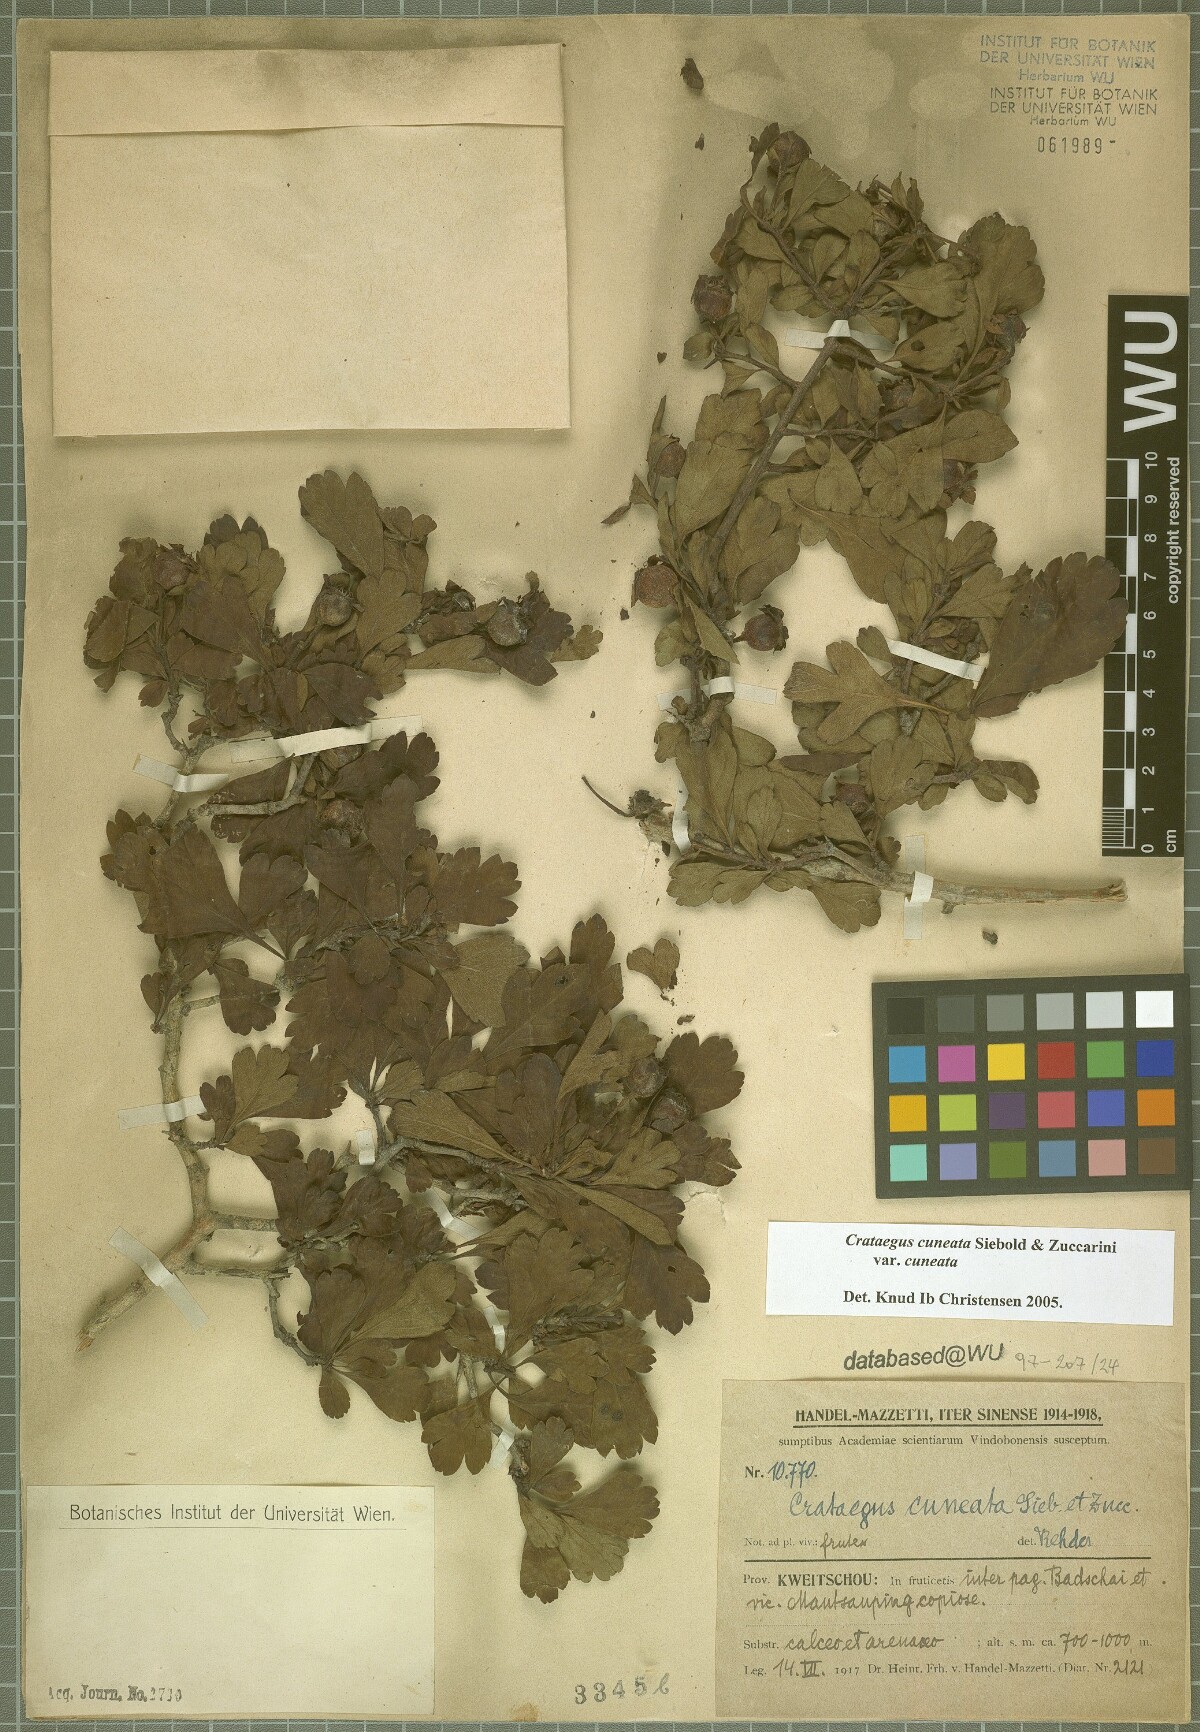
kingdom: Plantae
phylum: Tracheophyta
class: Magnoliopsida
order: Rosales
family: Rosaceae
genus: Crataegus
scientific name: Crataegus cuneata
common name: Chinese hawthorn
